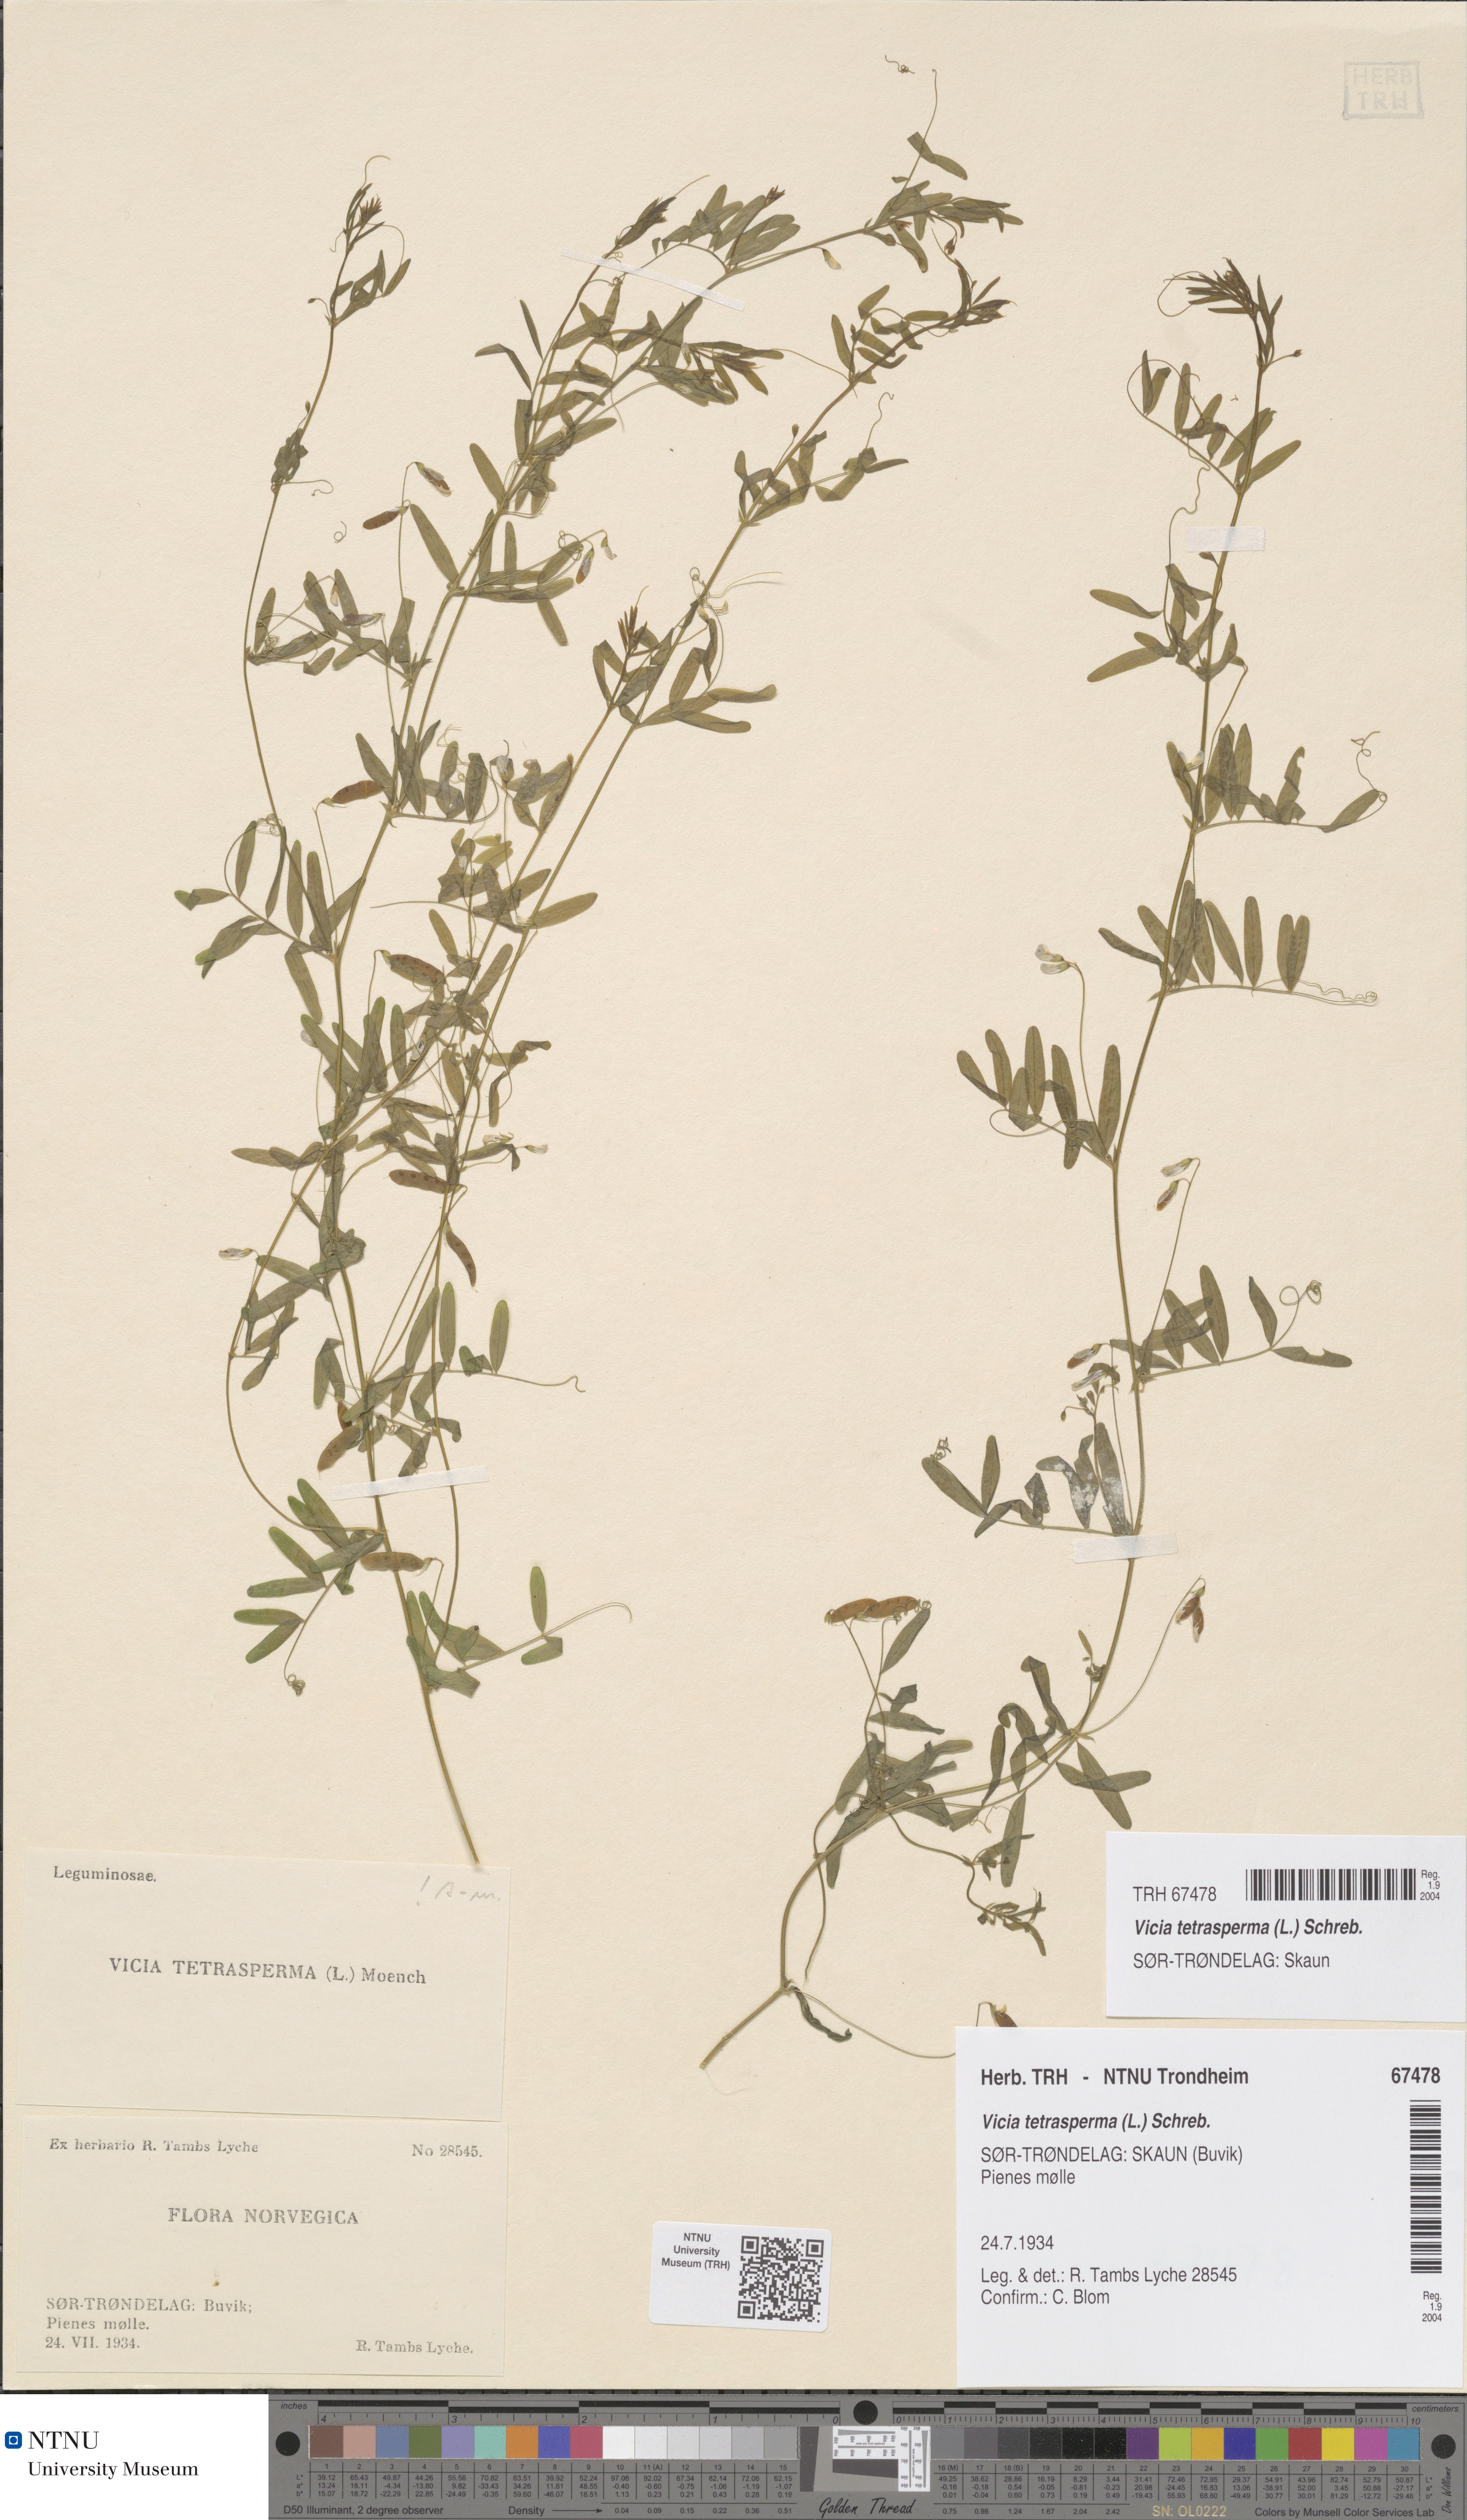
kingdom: Plantae
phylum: Tracheophyta
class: Magnoliopsida
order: Fabales
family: Fabaceae
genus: Vicia
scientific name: Vicia tetrasperma
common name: Smooth tare
